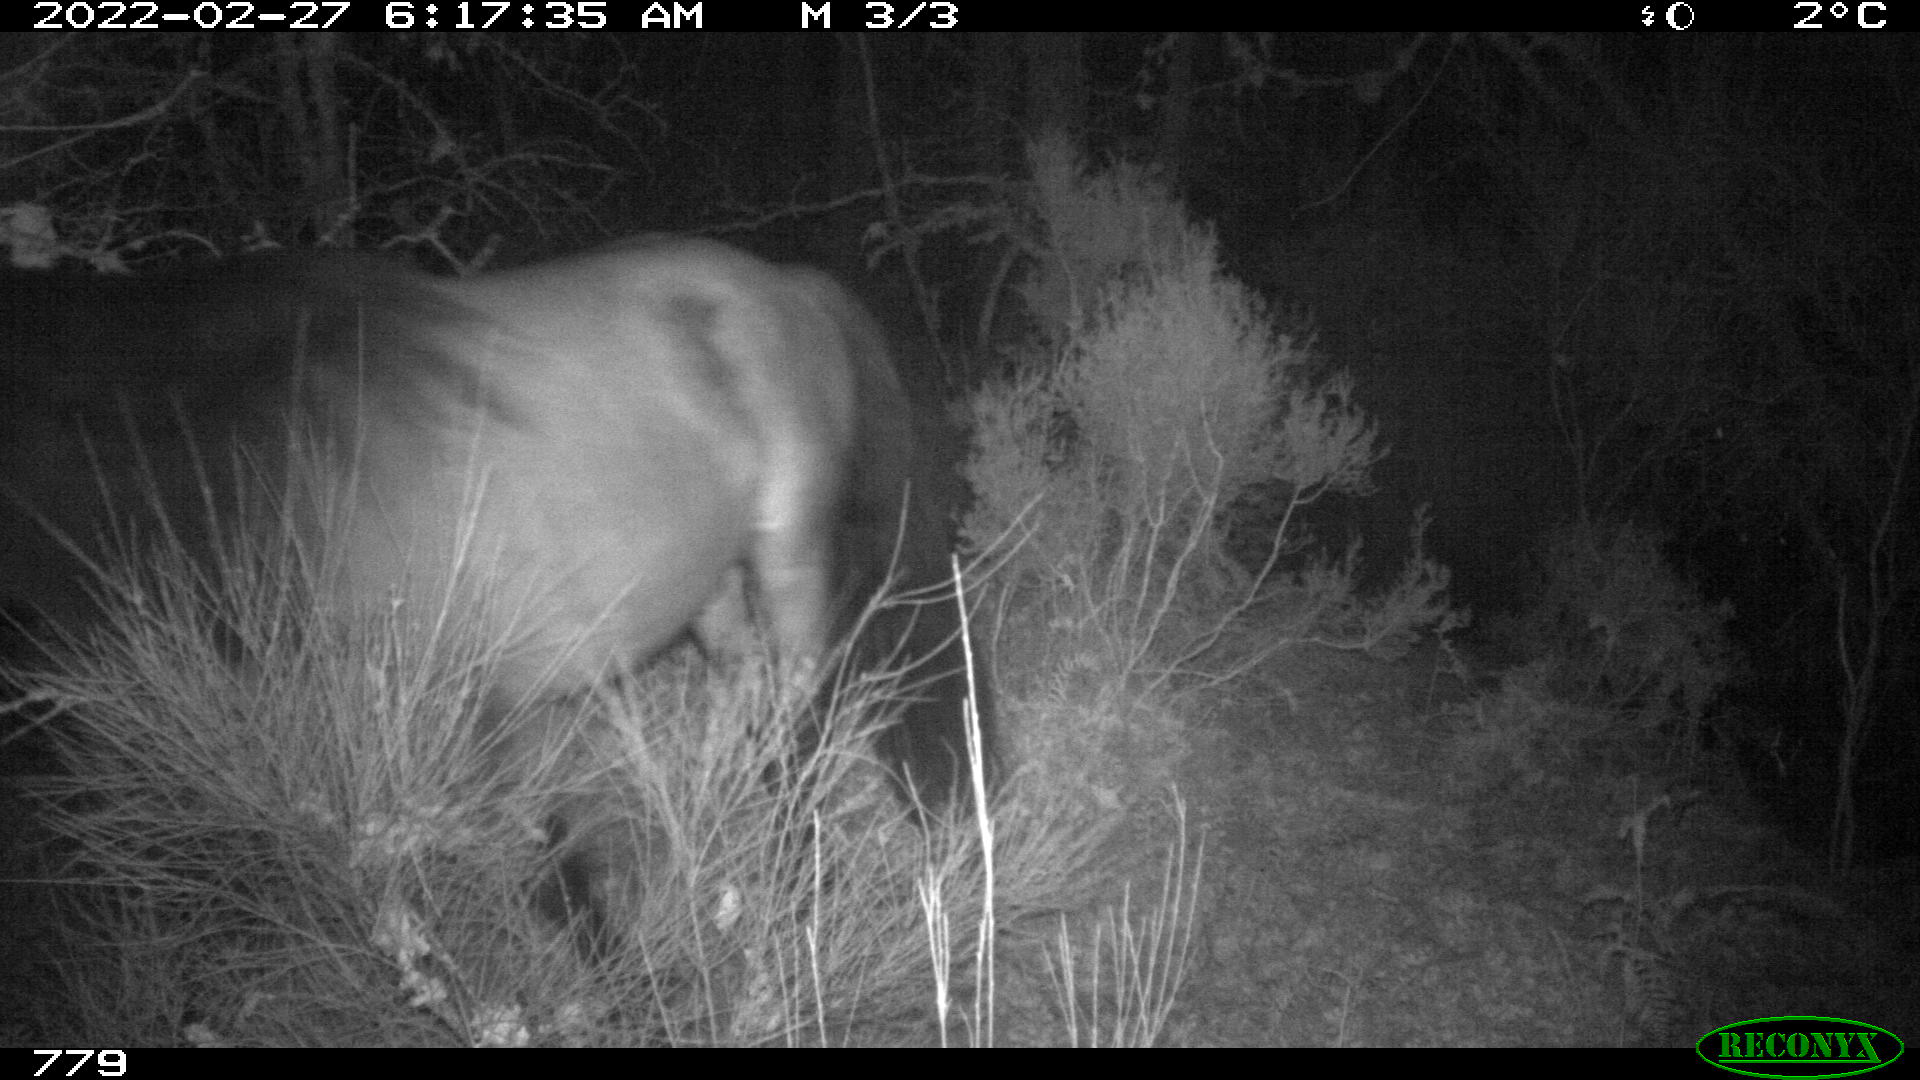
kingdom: Animalia
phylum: Chordata
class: Mammalia
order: Perissodactyla
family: Equidae
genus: Equus
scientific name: Equus caballus
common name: Horse
